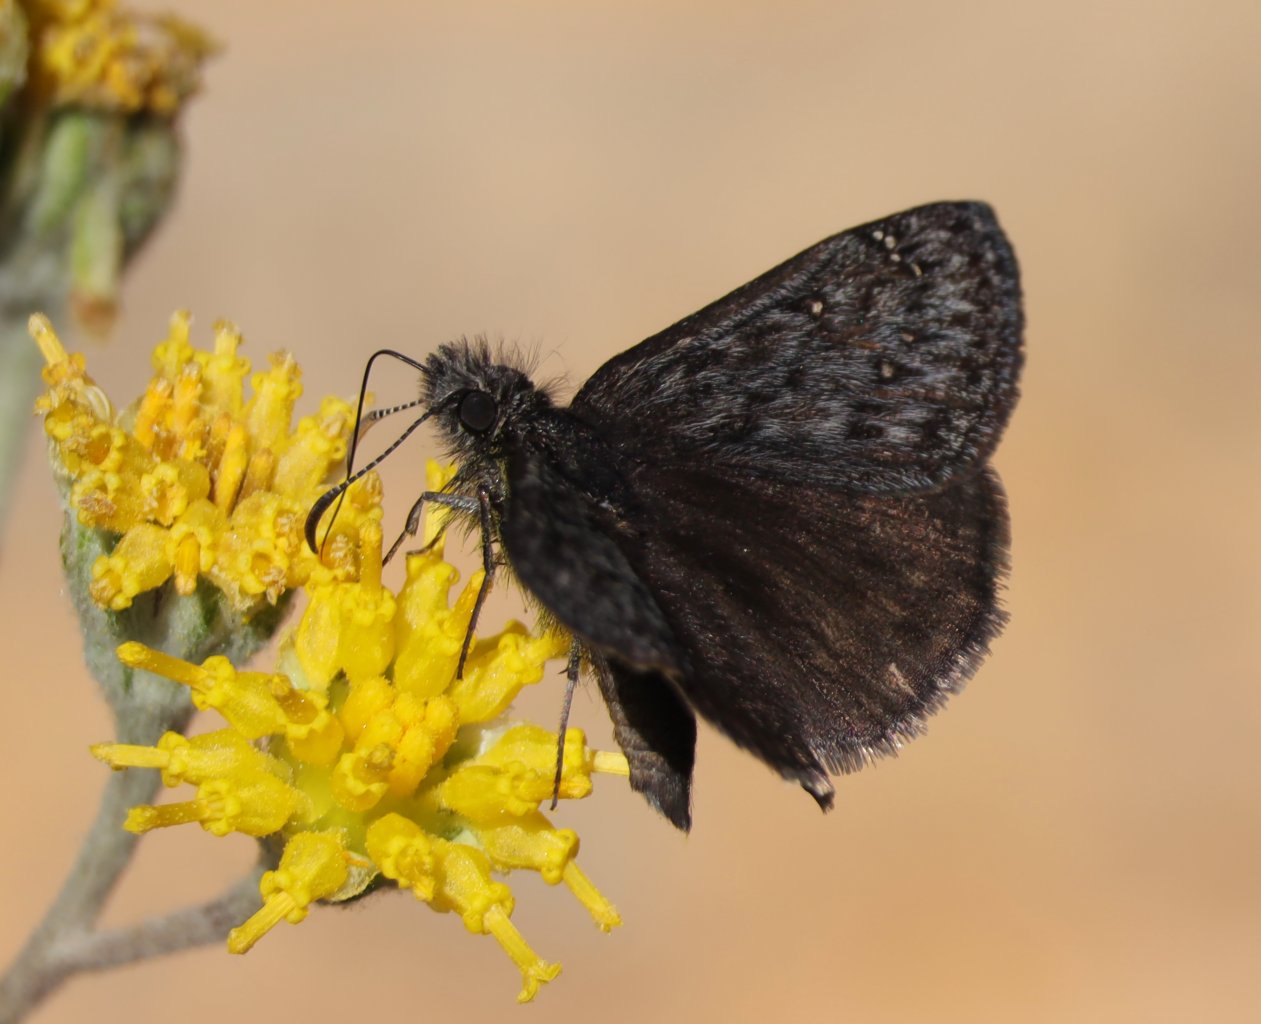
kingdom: Animalia
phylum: Arthropoda
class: Insecta
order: Lepidoptera
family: Hesperiidae
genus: Erynnis
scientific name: Erynnis afranius
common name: Afranius Duskywing
